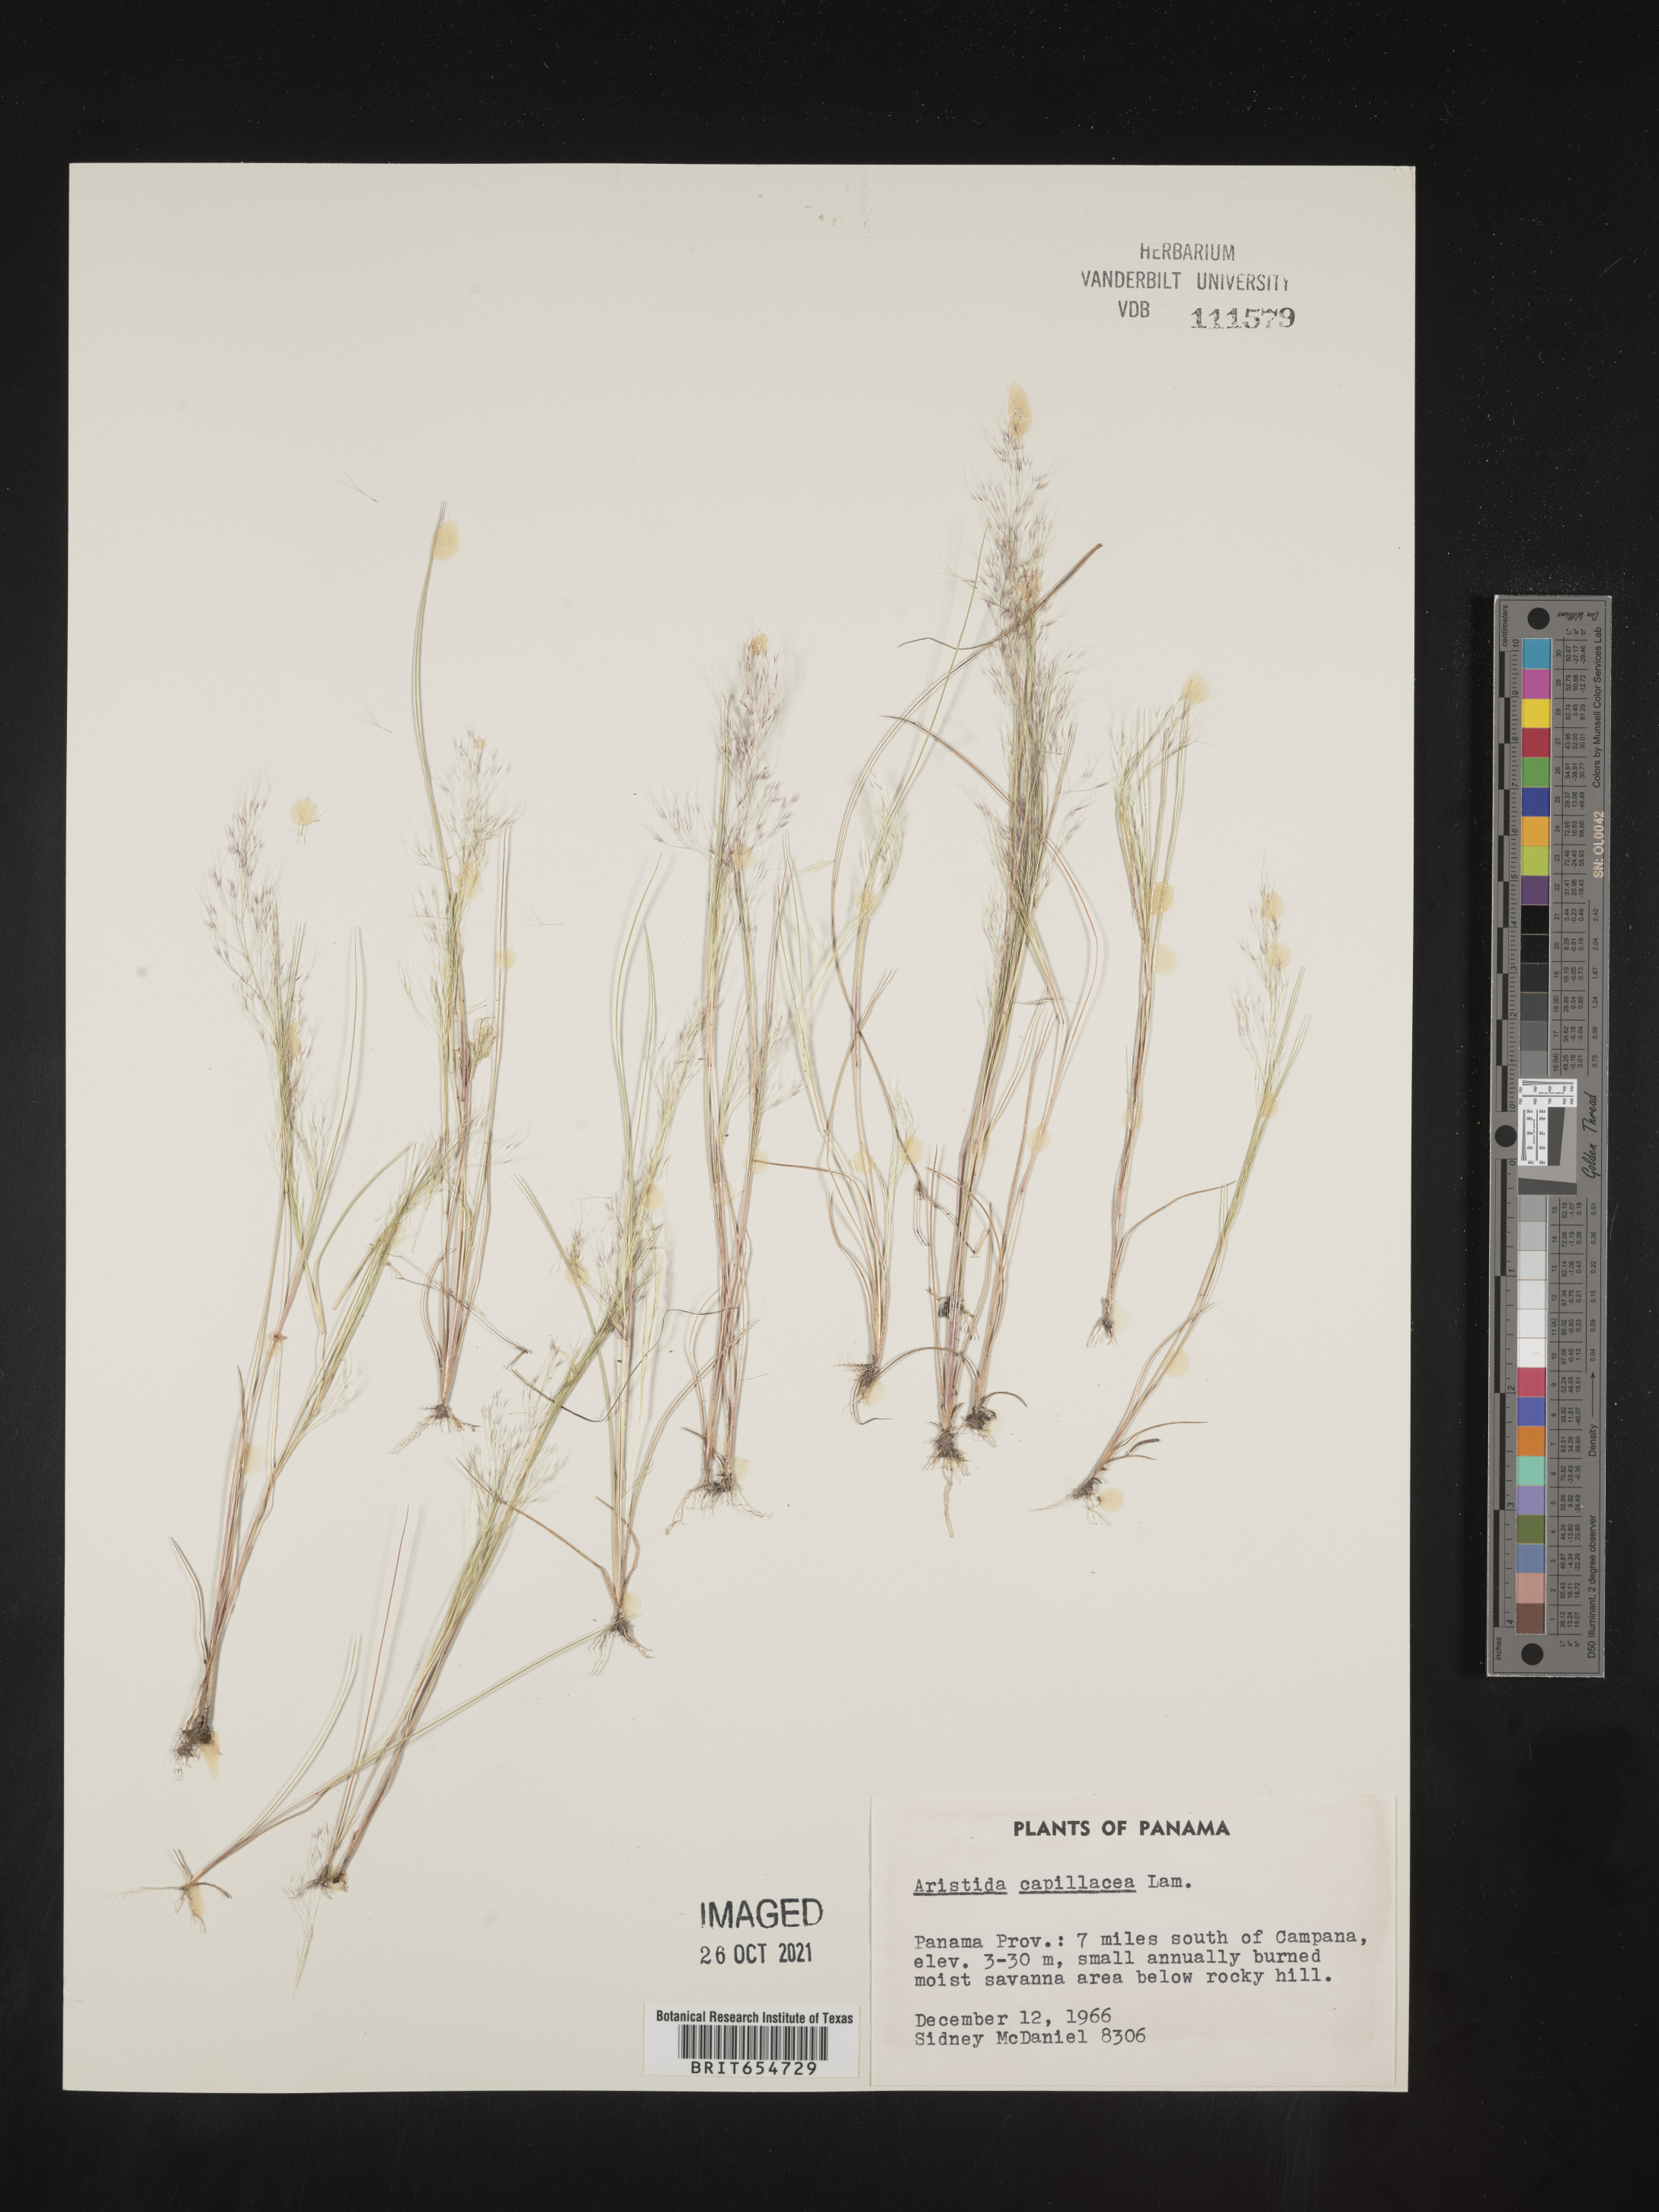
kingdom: Plantae
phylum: Tracheophyta
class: Liliopsida
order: Poales
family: Poaceae
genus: Aristida
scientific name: Aristida
